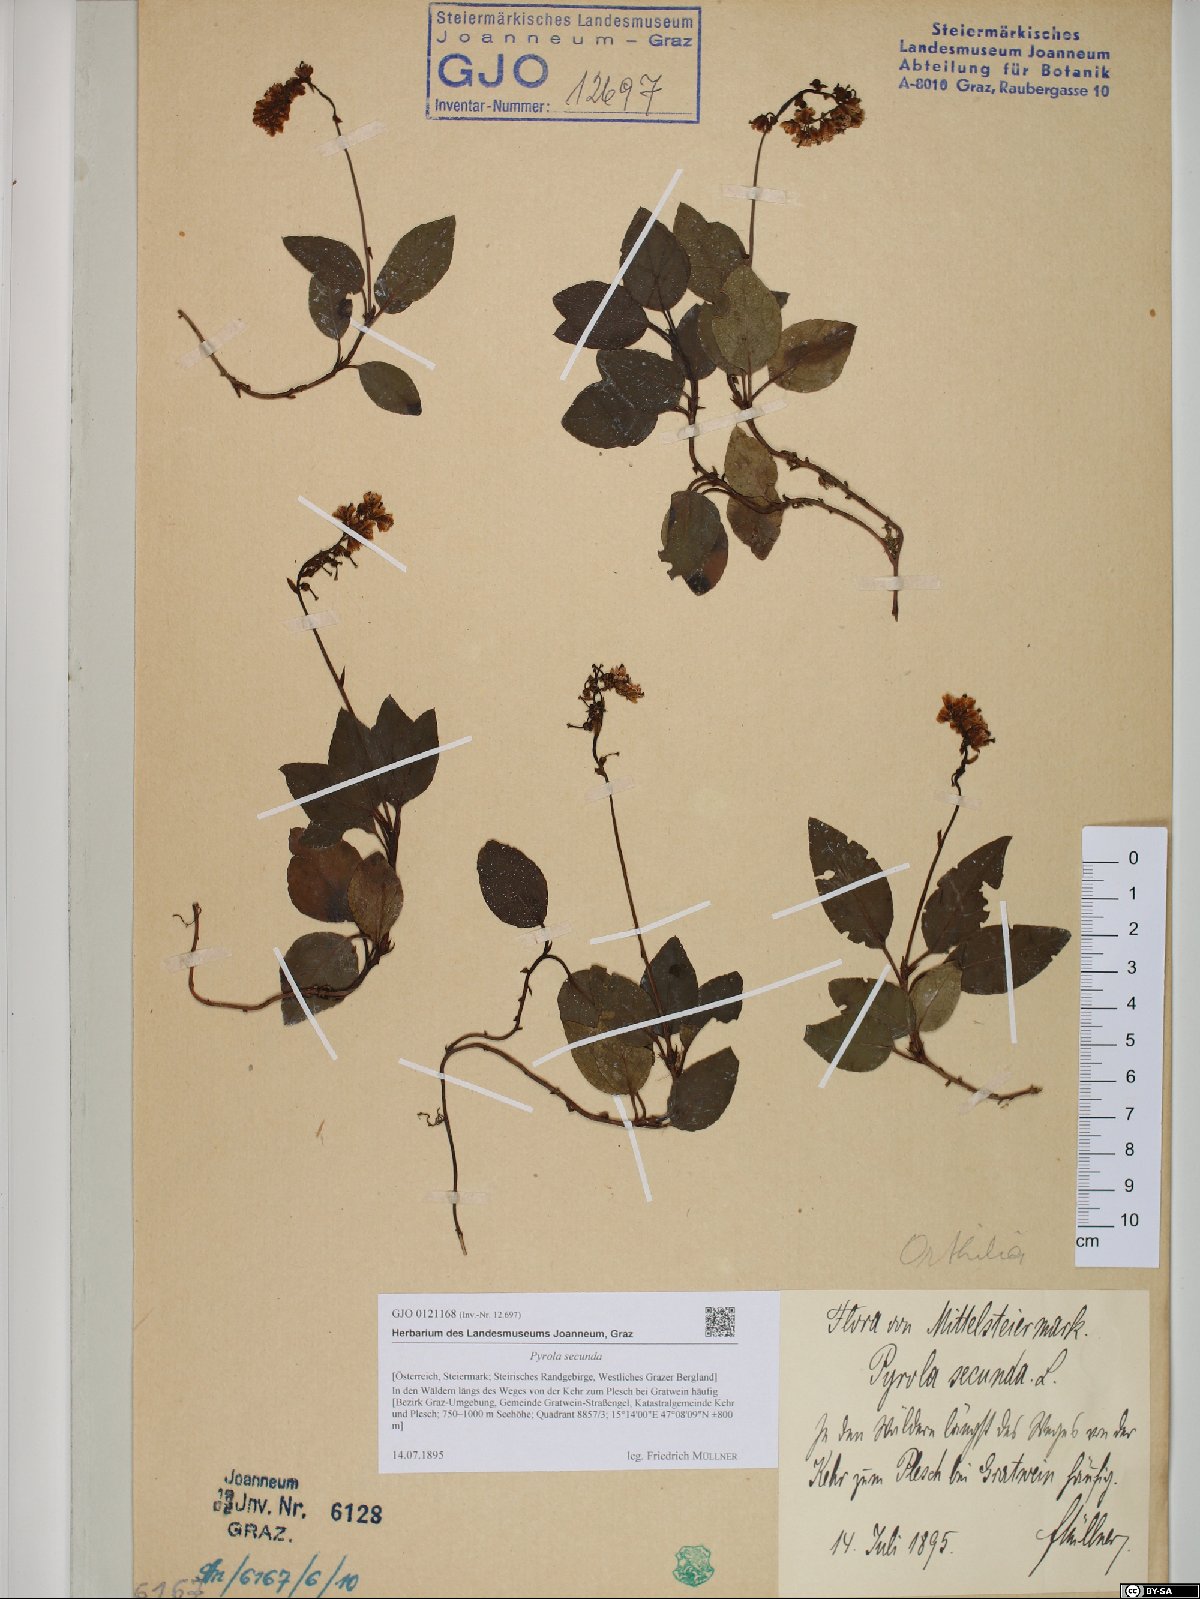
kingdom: Plantae
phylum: Tracheophyta
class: Magnoliopsida
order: Ericales
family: Ericaceae
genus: Orthilia
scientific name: Orthilia secunda
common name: One-sided orthilia
